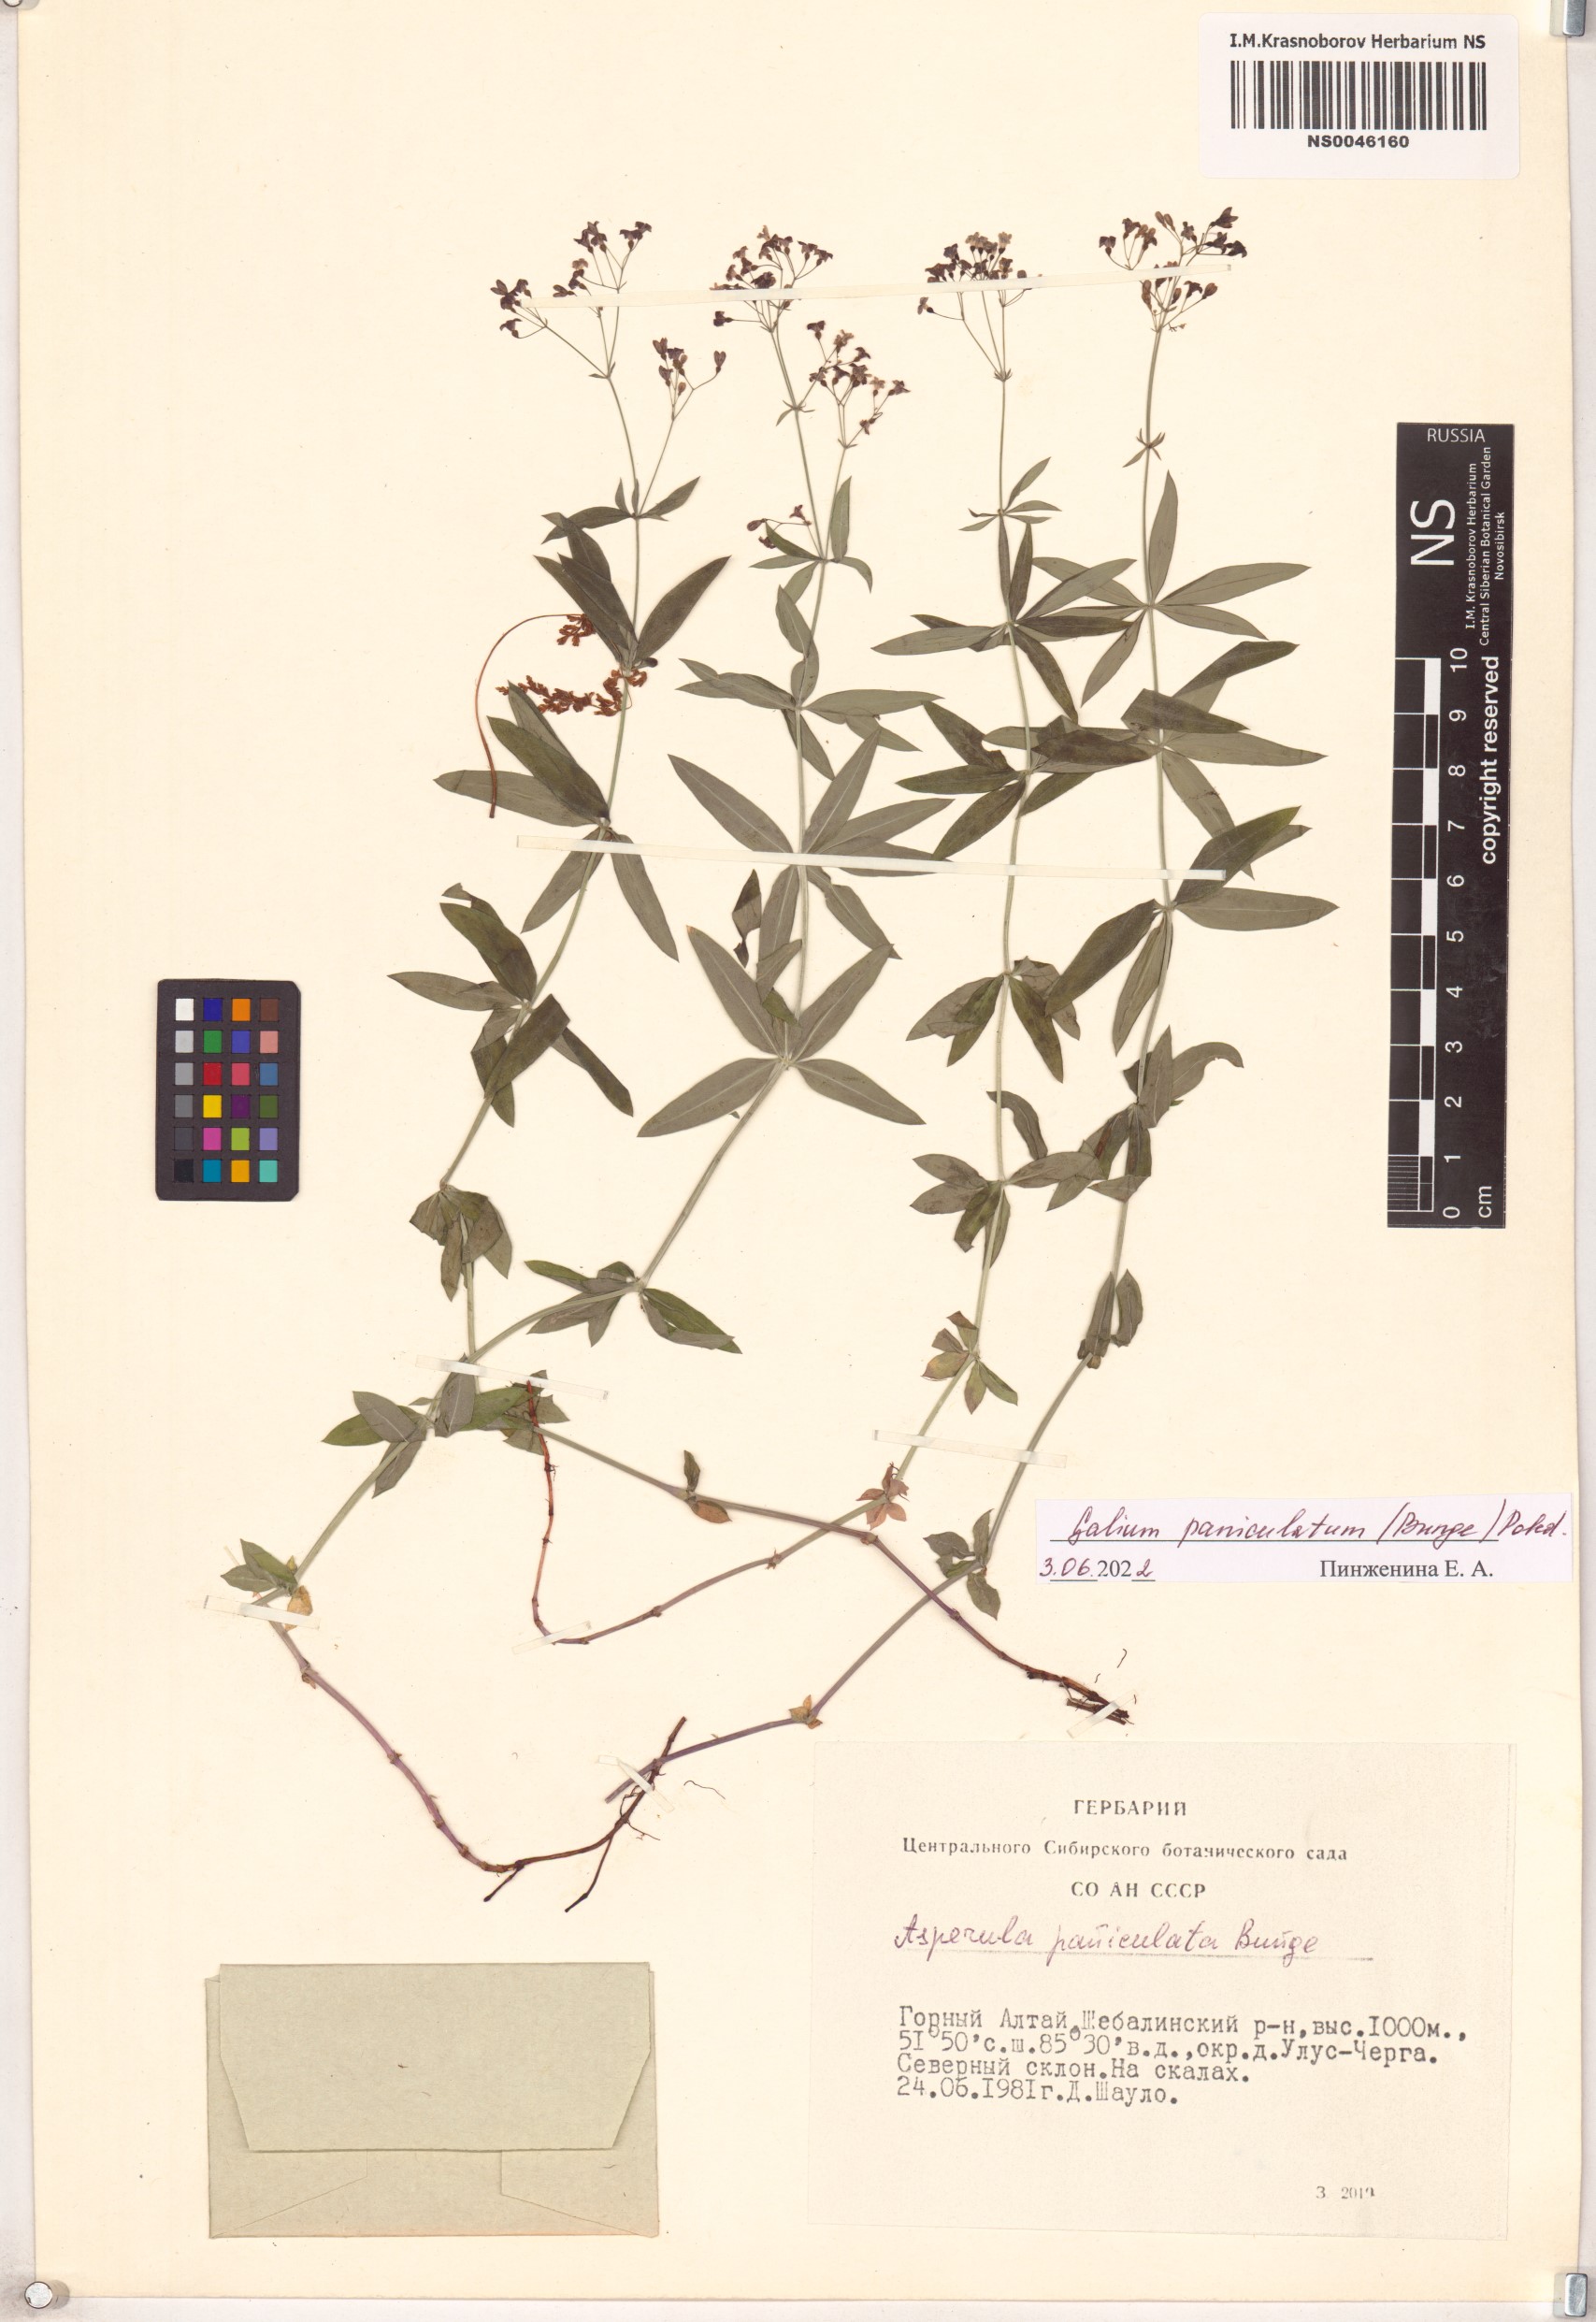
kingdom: Plantae
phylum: Tracheophyta
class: Magnoliopsida
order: Gentianales
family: Rubiaceae
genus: Galium
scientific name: Galium paniculatum
